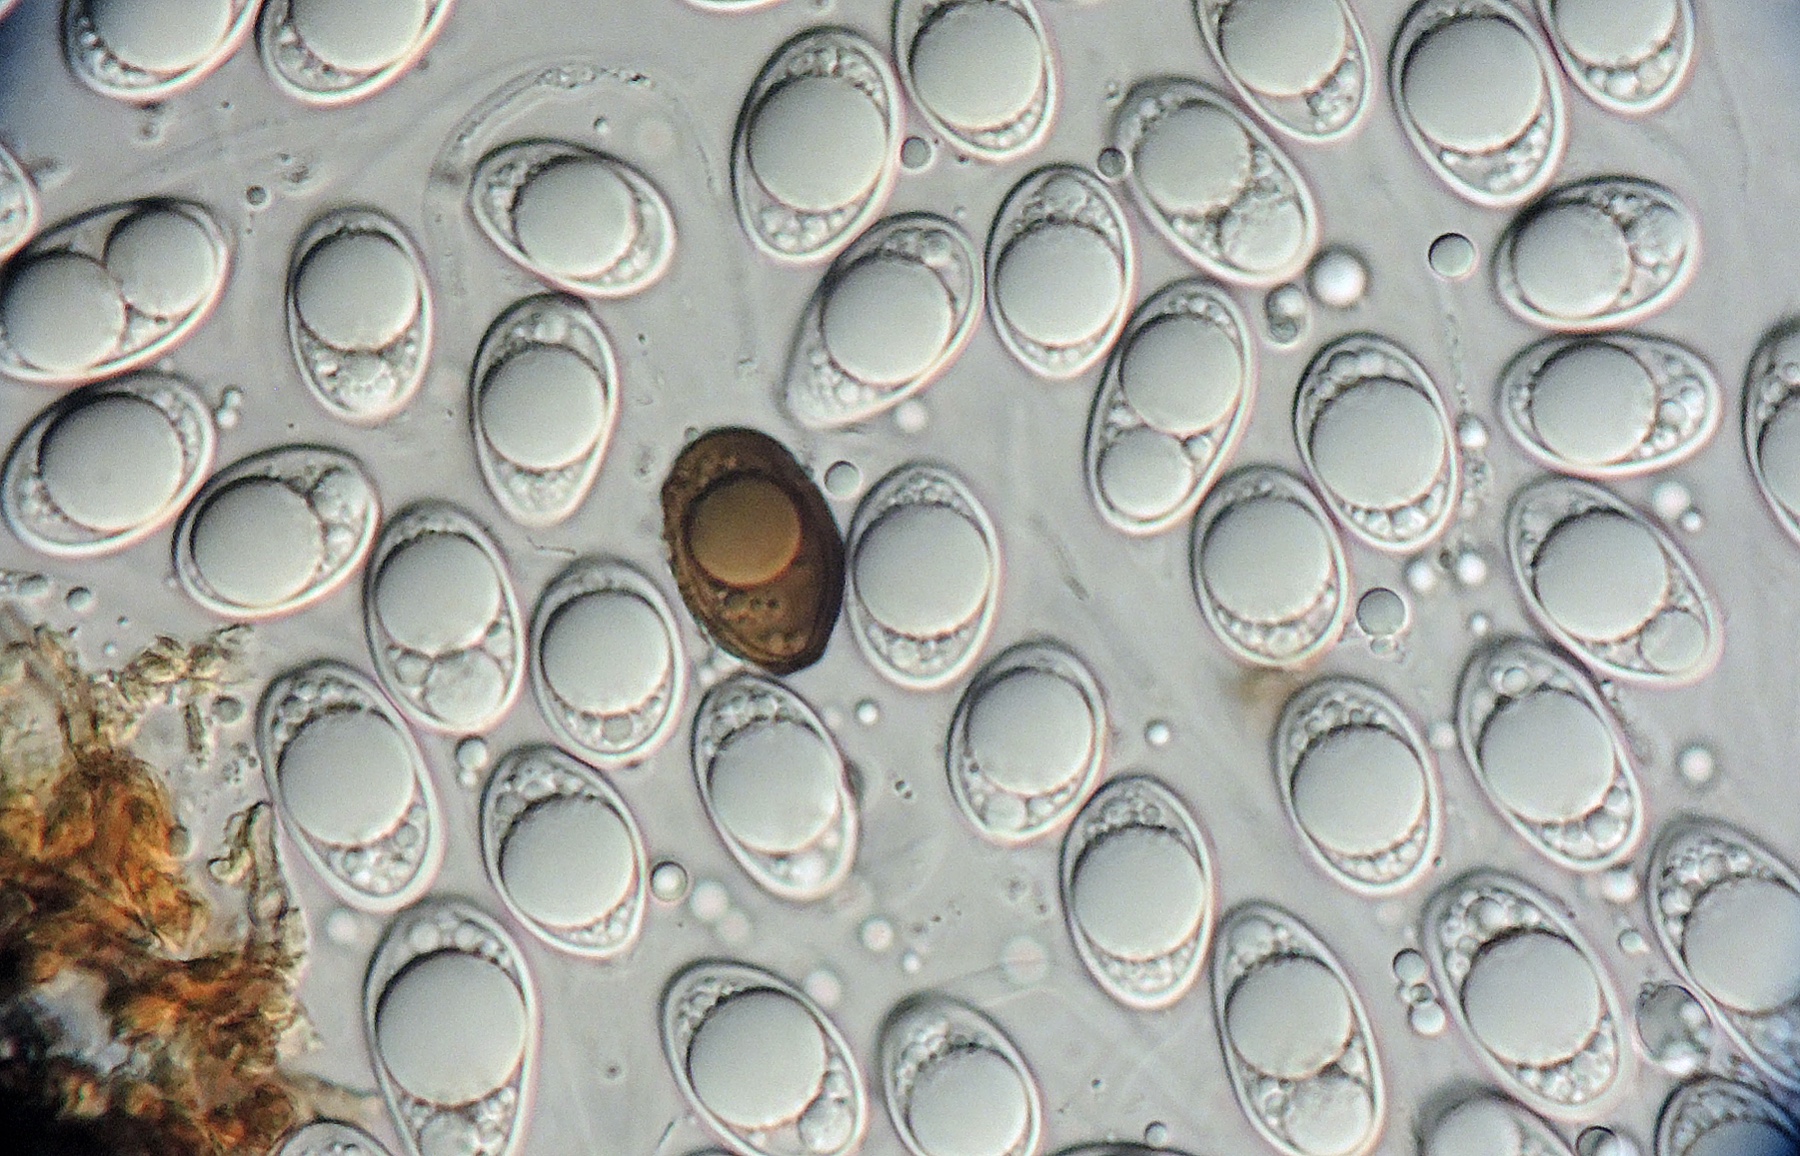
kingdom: Fungi
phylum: Ascomycota
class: Dothideomycetes
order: Botryosphaeriales
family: Botryosphaeriaceae
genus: Diplodia
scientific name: Diplodia tiliae
